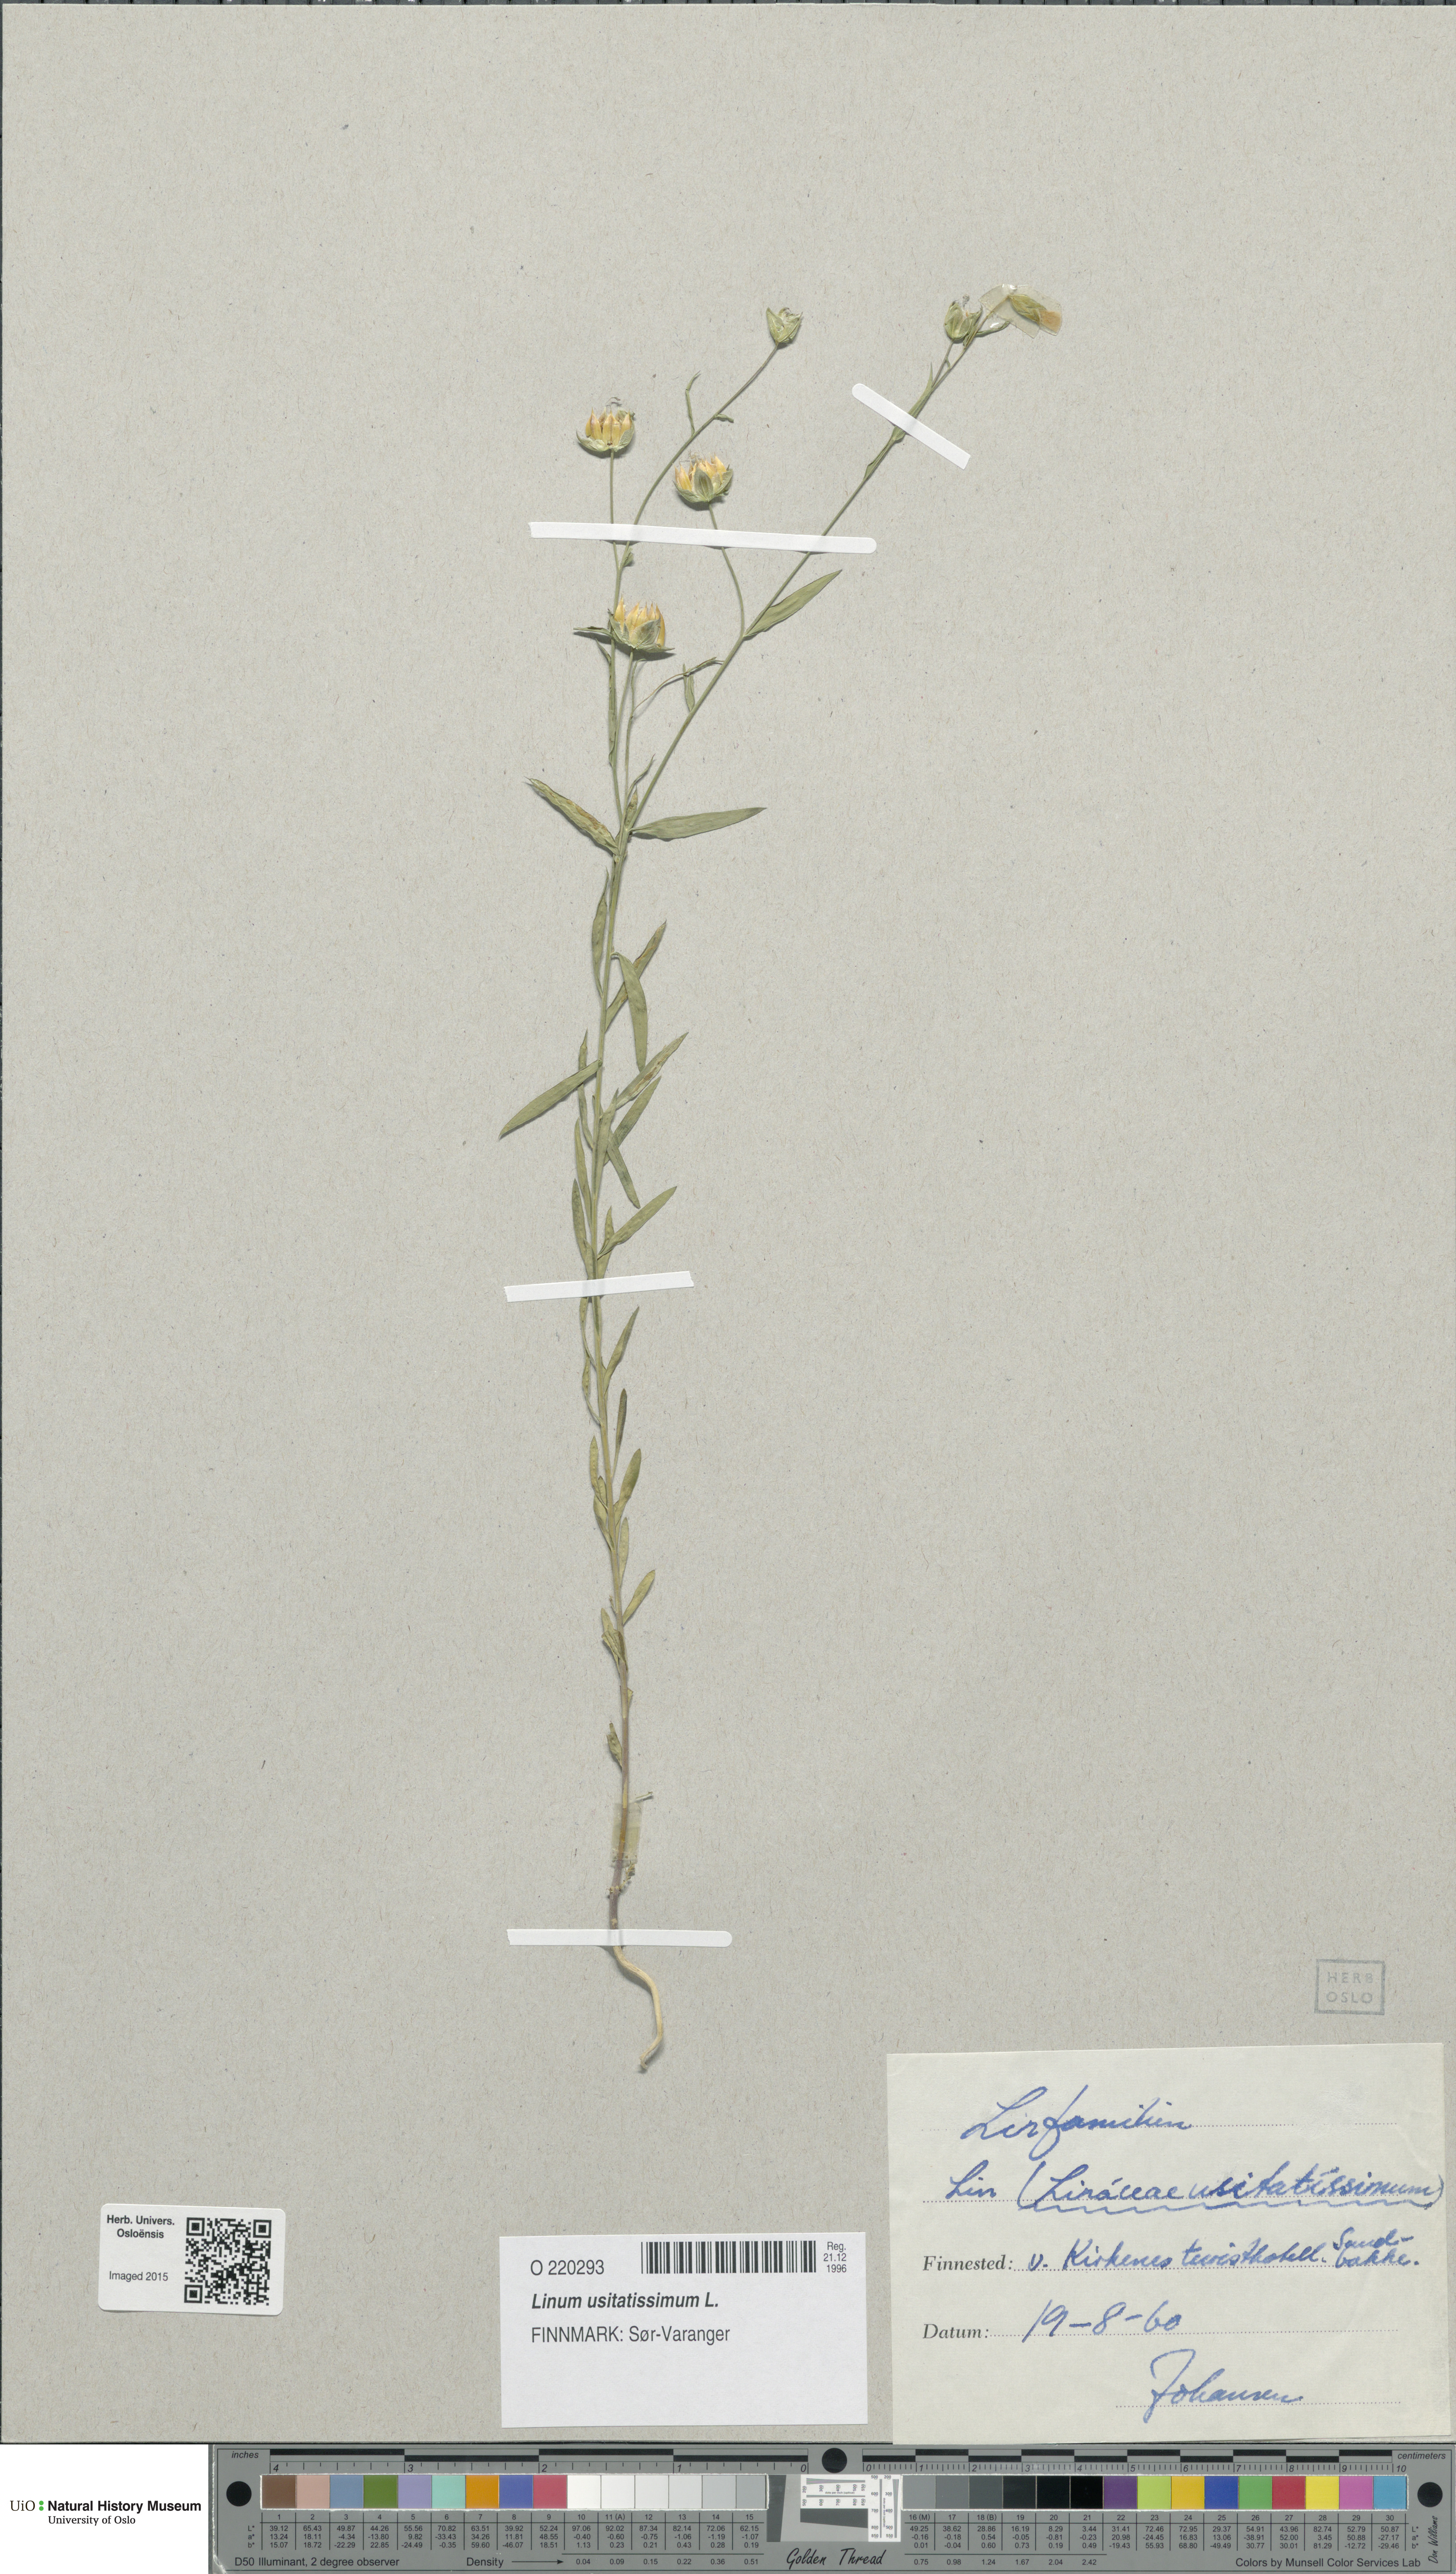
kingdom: Plantae
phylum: Tracheophyta
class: Magnoliopsida
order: Malpighiales
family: Linaceae
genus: Linum
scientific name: Linum usitatissimum
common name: Flax
